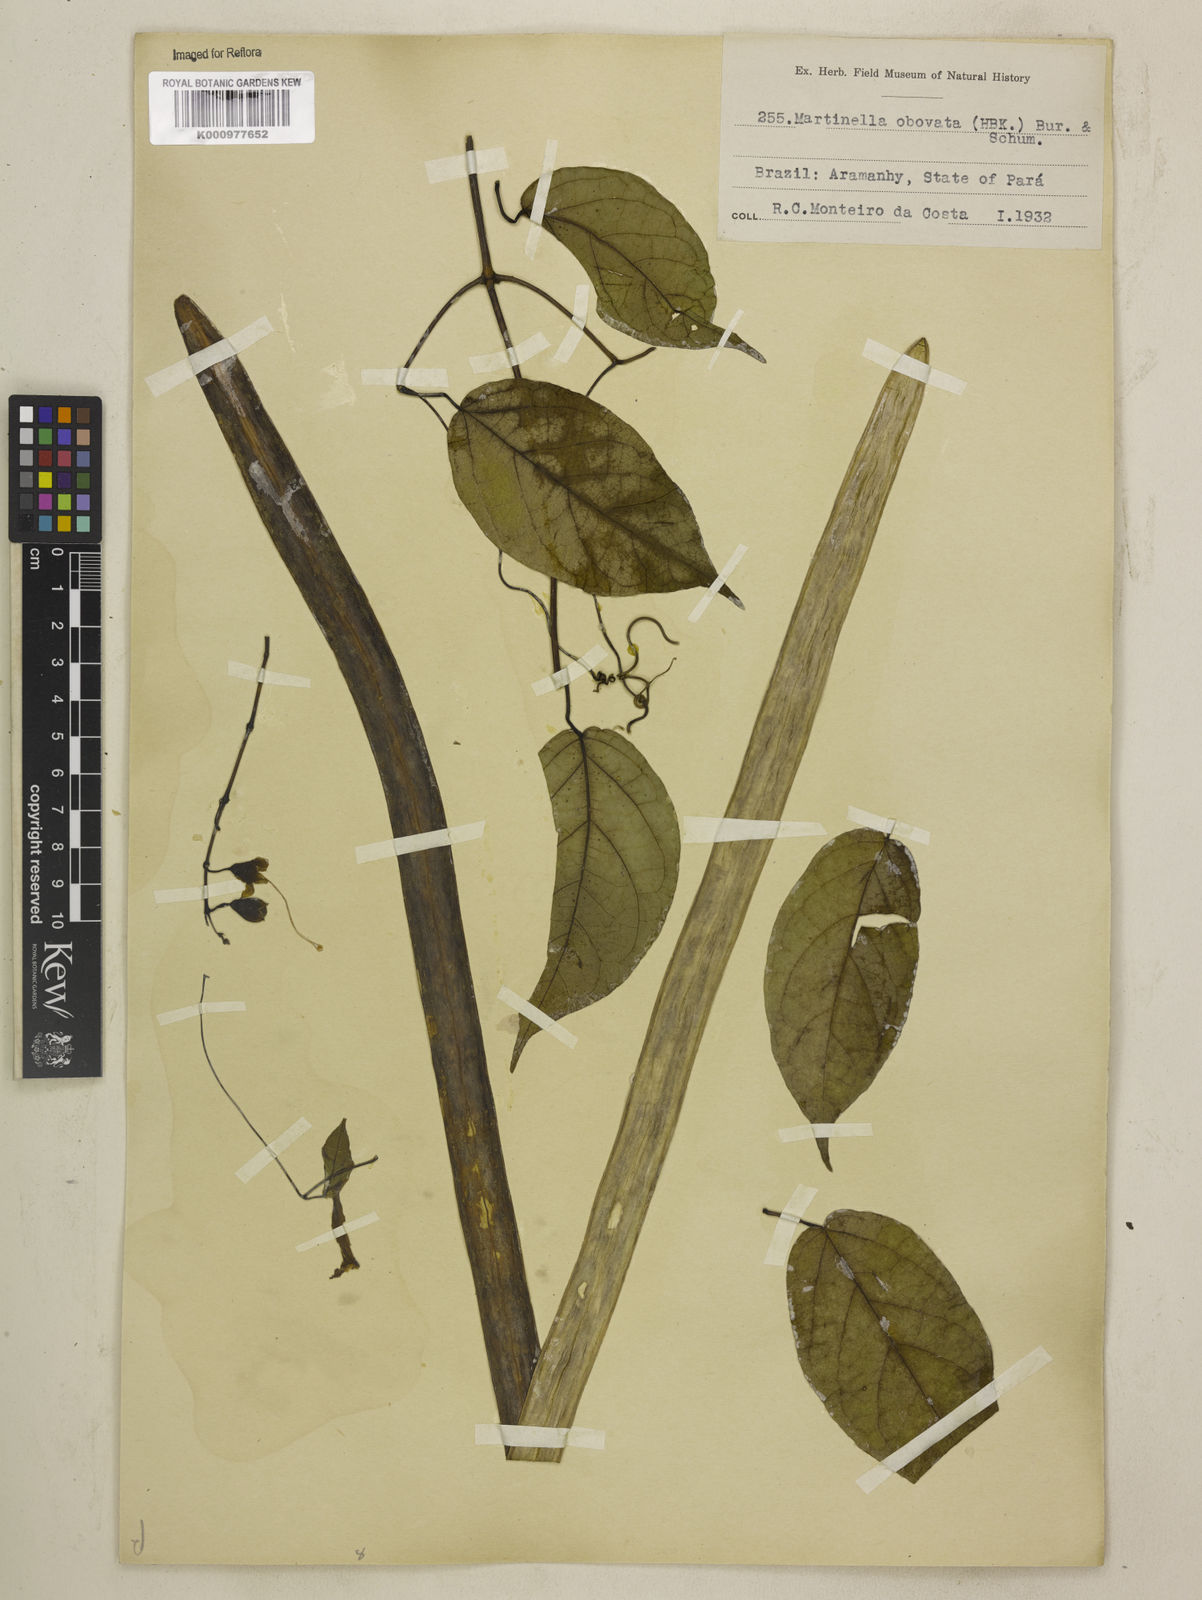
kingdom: Animalia
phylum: Arthropoda
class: Insecta
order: Coleoptera
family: Chrysomelidae
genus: Martinella
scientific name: Martinella obovata
